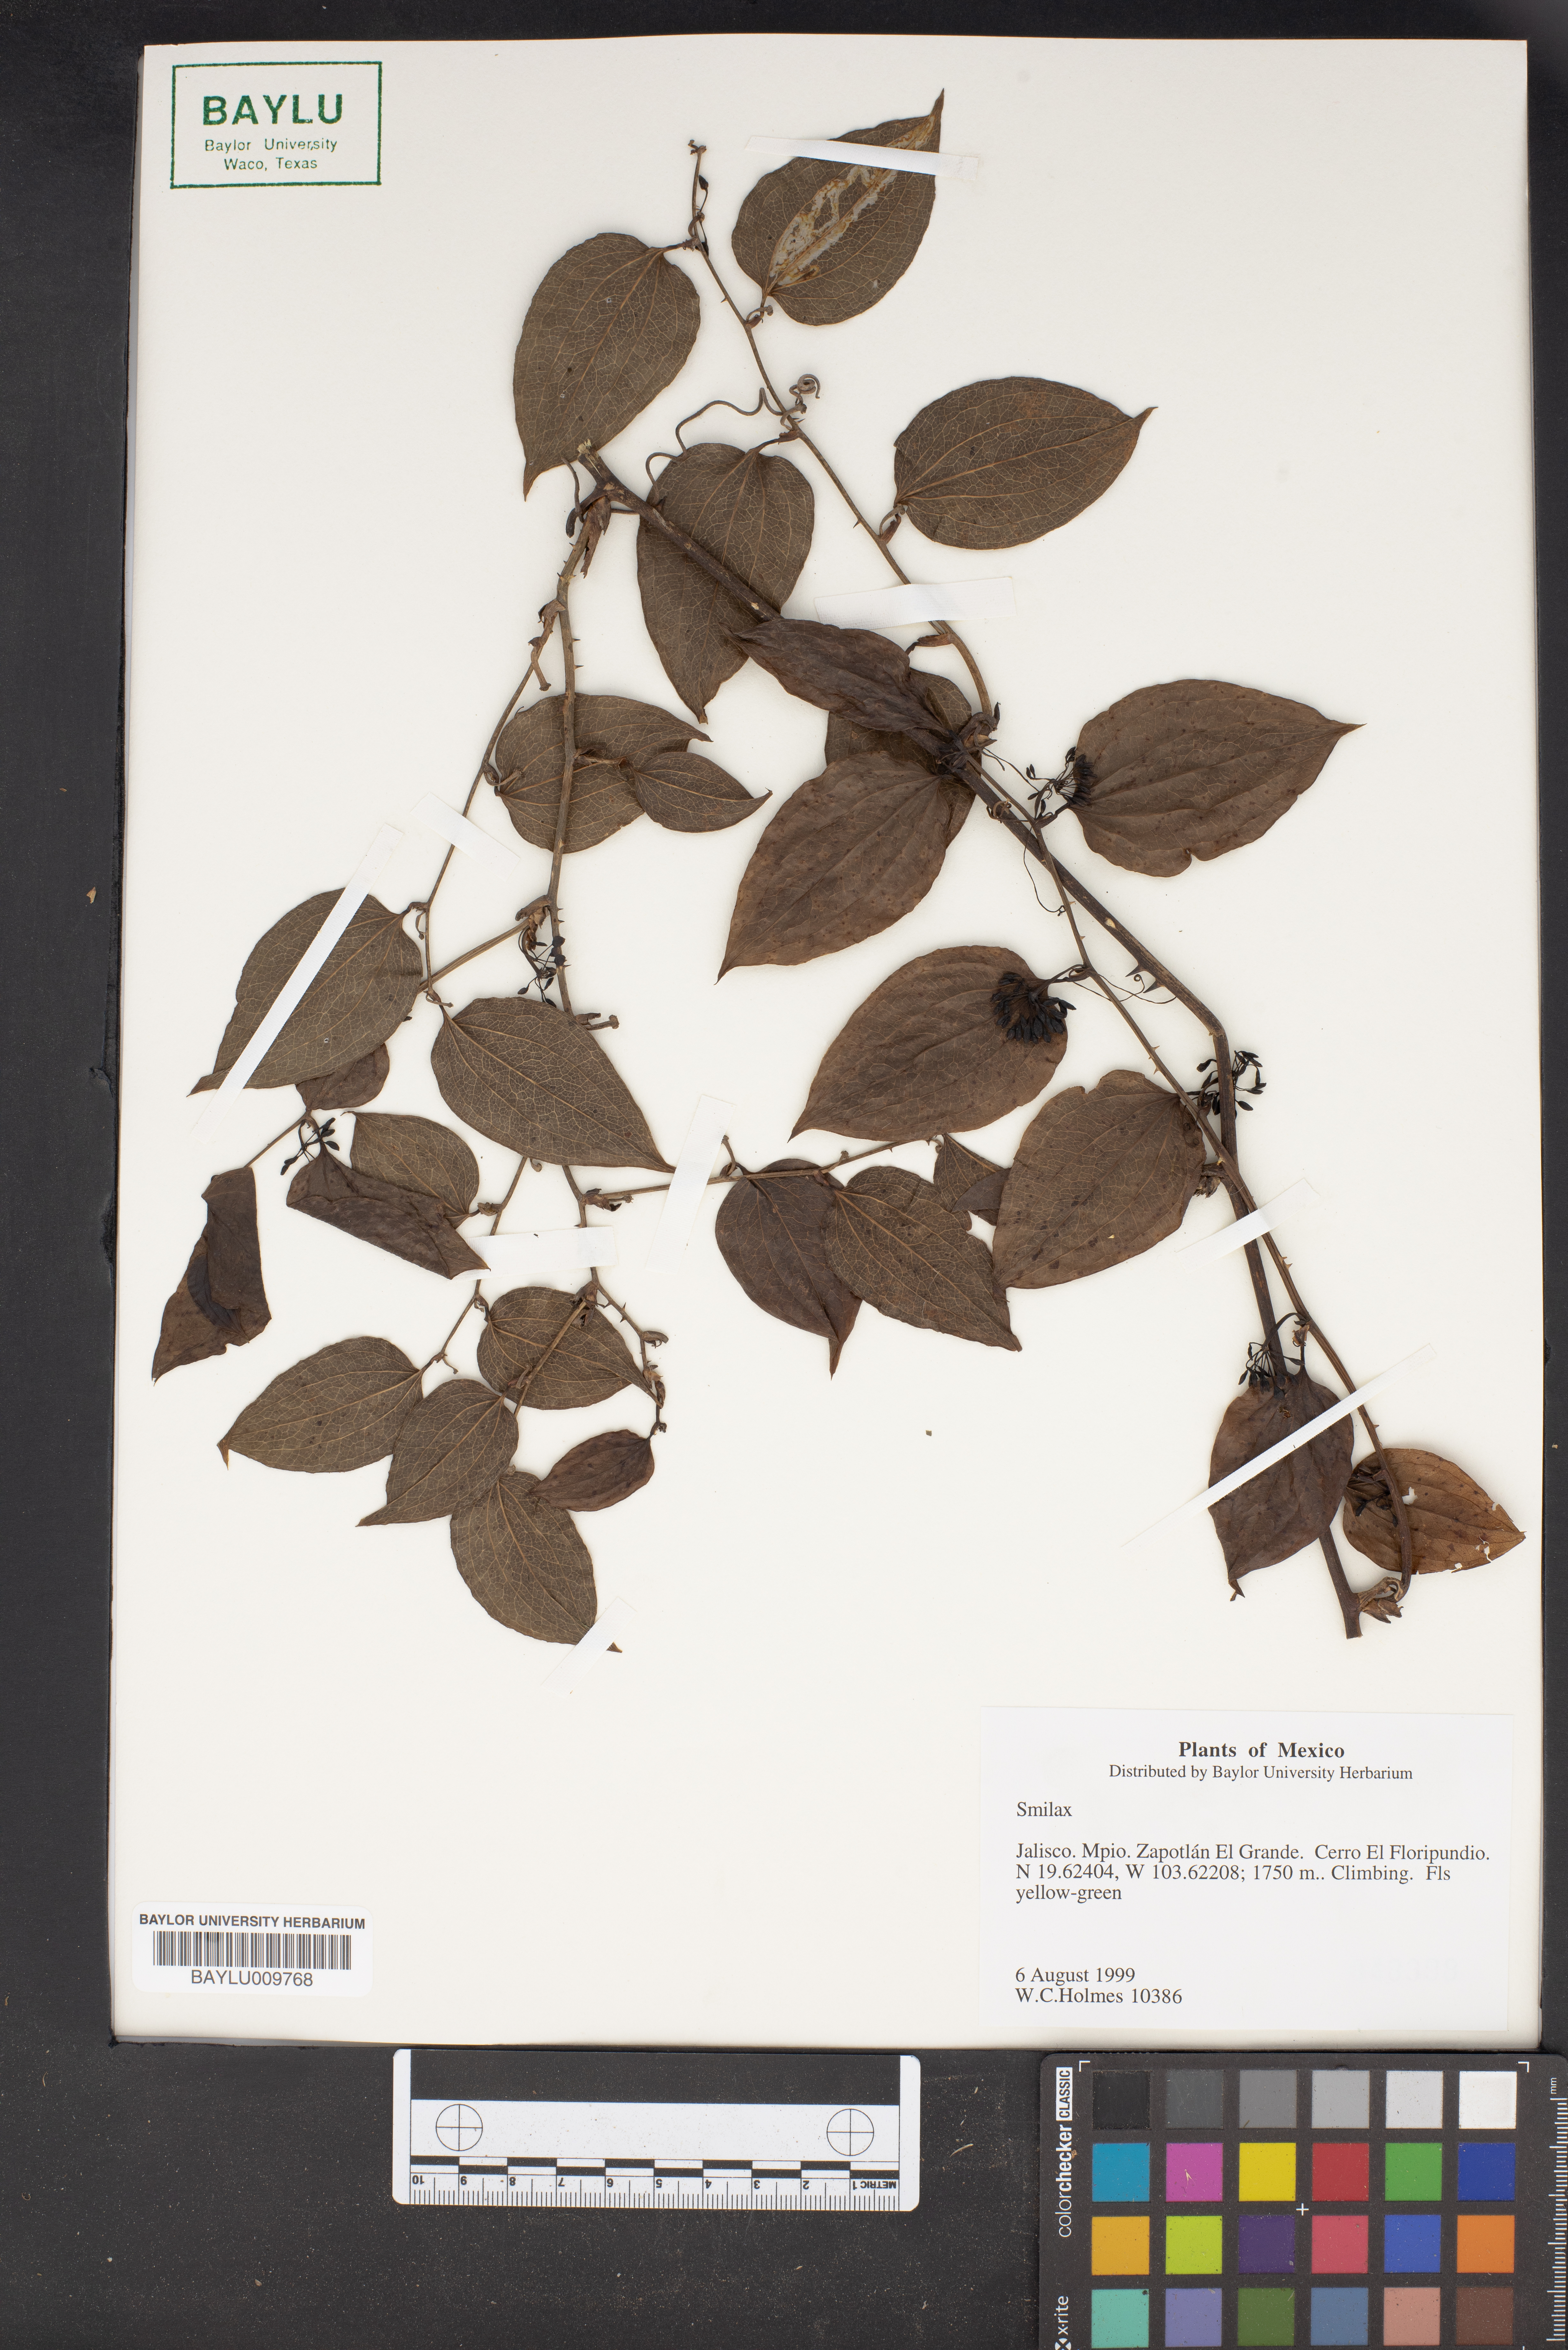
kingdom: Plantae
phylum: Tracheophyta
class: Liliopsida
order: Liliales
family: Smilacaceae
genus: Smilax
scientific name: Smilax
